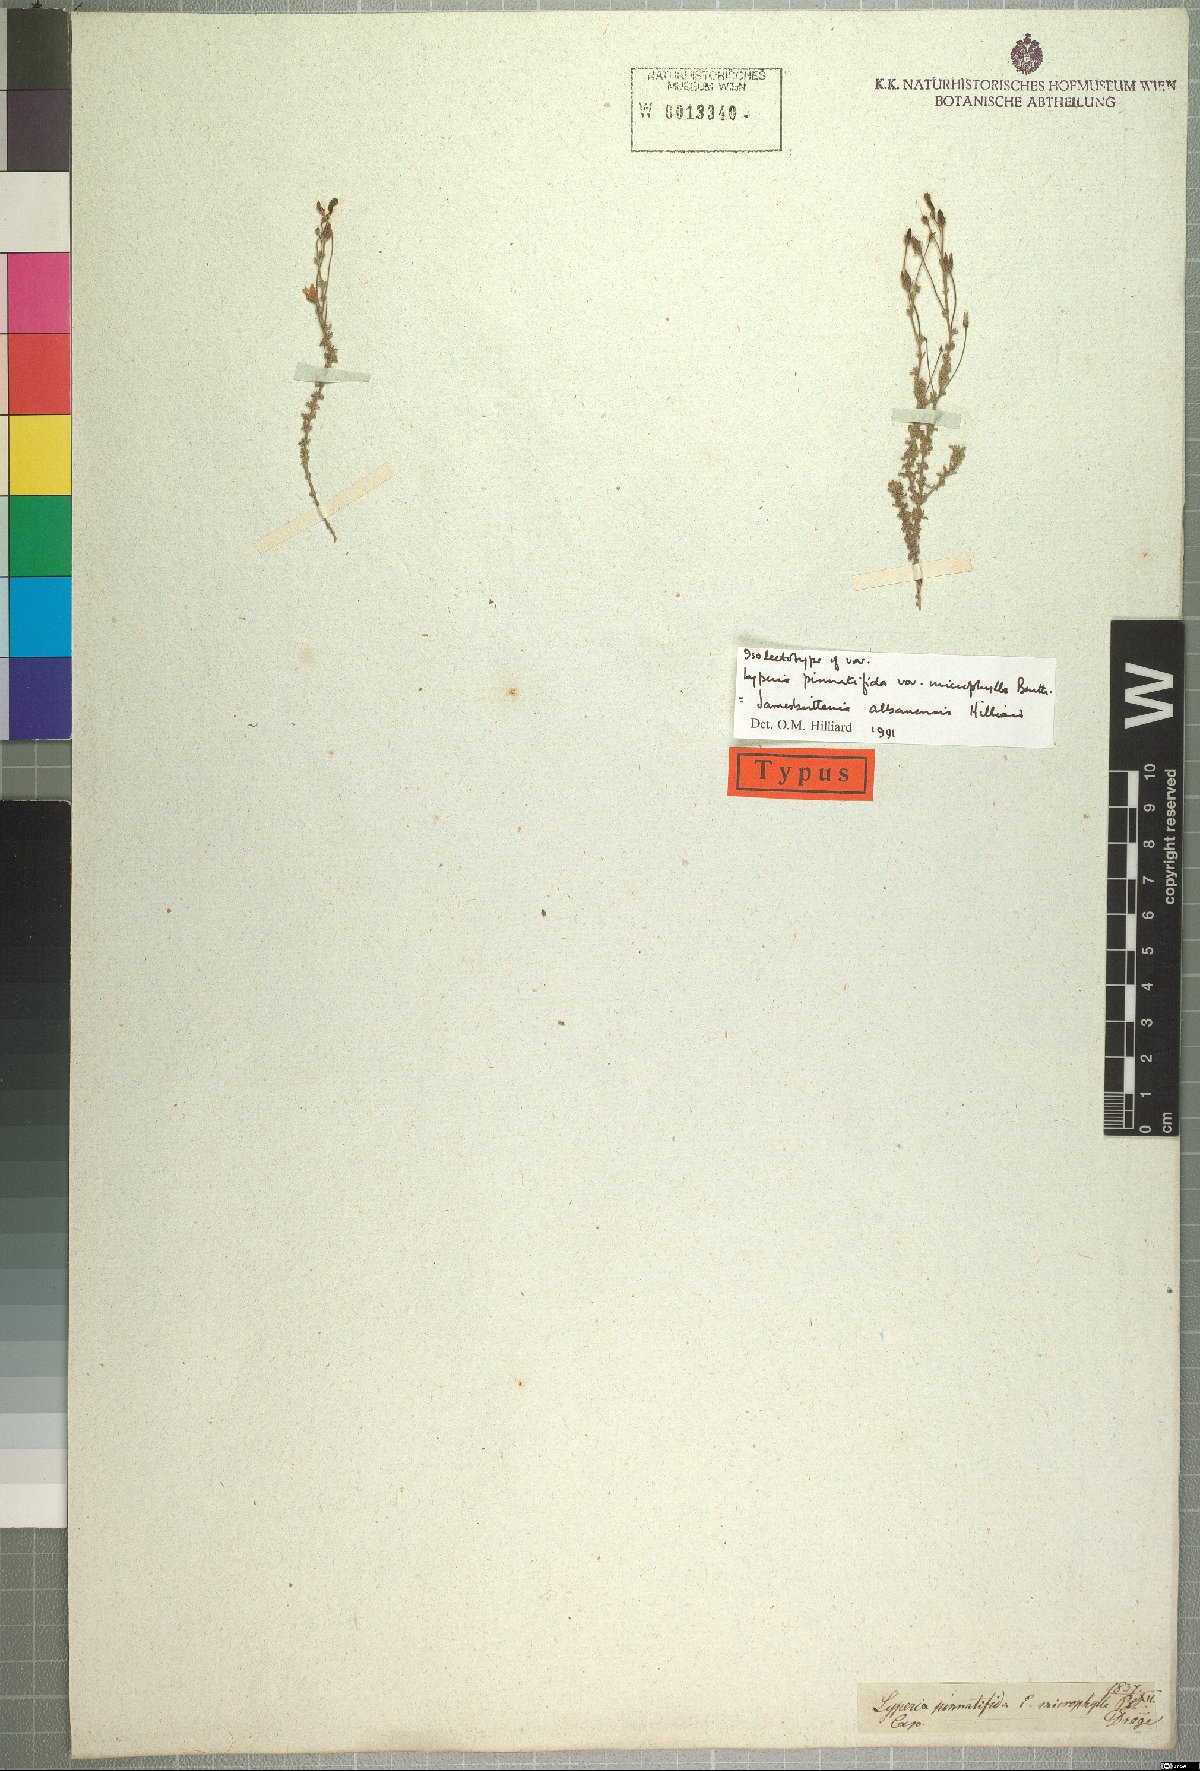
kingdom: Plantae
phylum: Tracheophyta
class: Magnoliopsida
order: Lamiales
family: Scrophulariaceae
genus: Jamesbrittenia
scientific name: Jamesbrittenia albanensis
